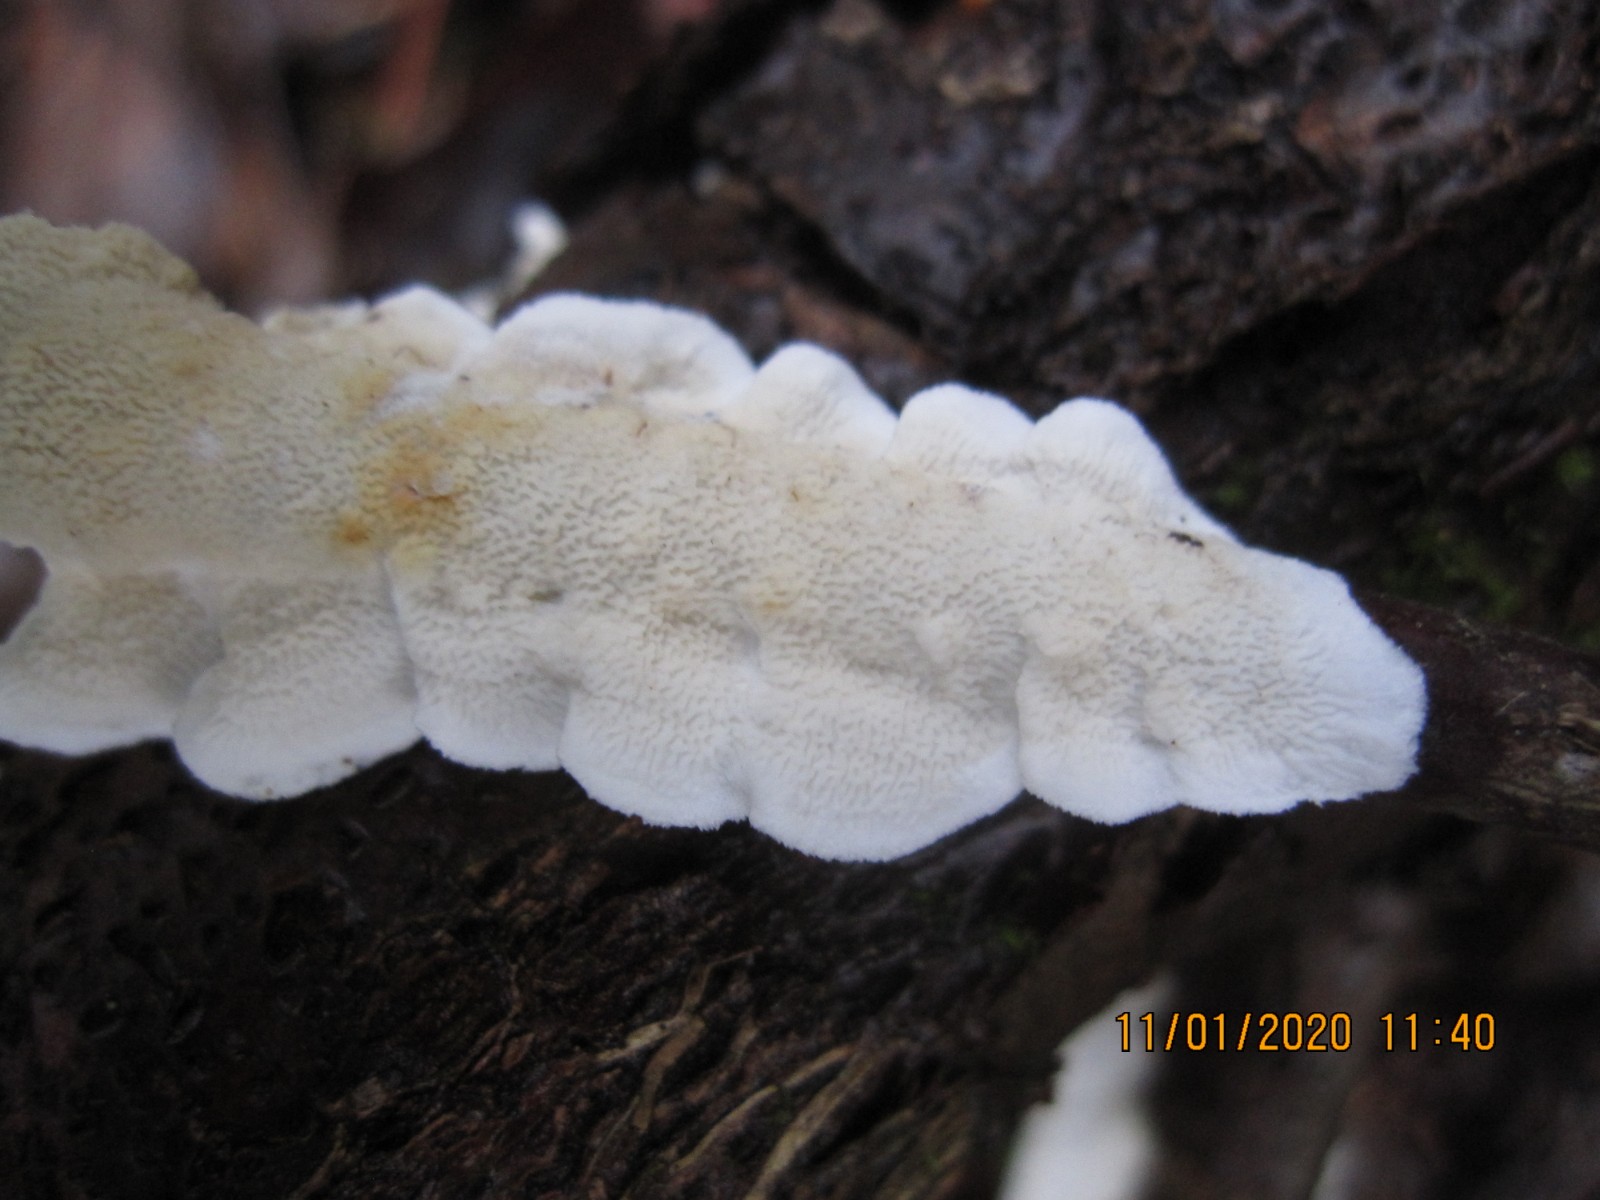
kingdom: Fungi
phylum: Basidiomycota
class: Agaricomycetes
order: Polyporales
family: Irpicaceae
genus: Byssomerulius
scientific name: Byssomerulius corium
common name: læder-åresvamp
